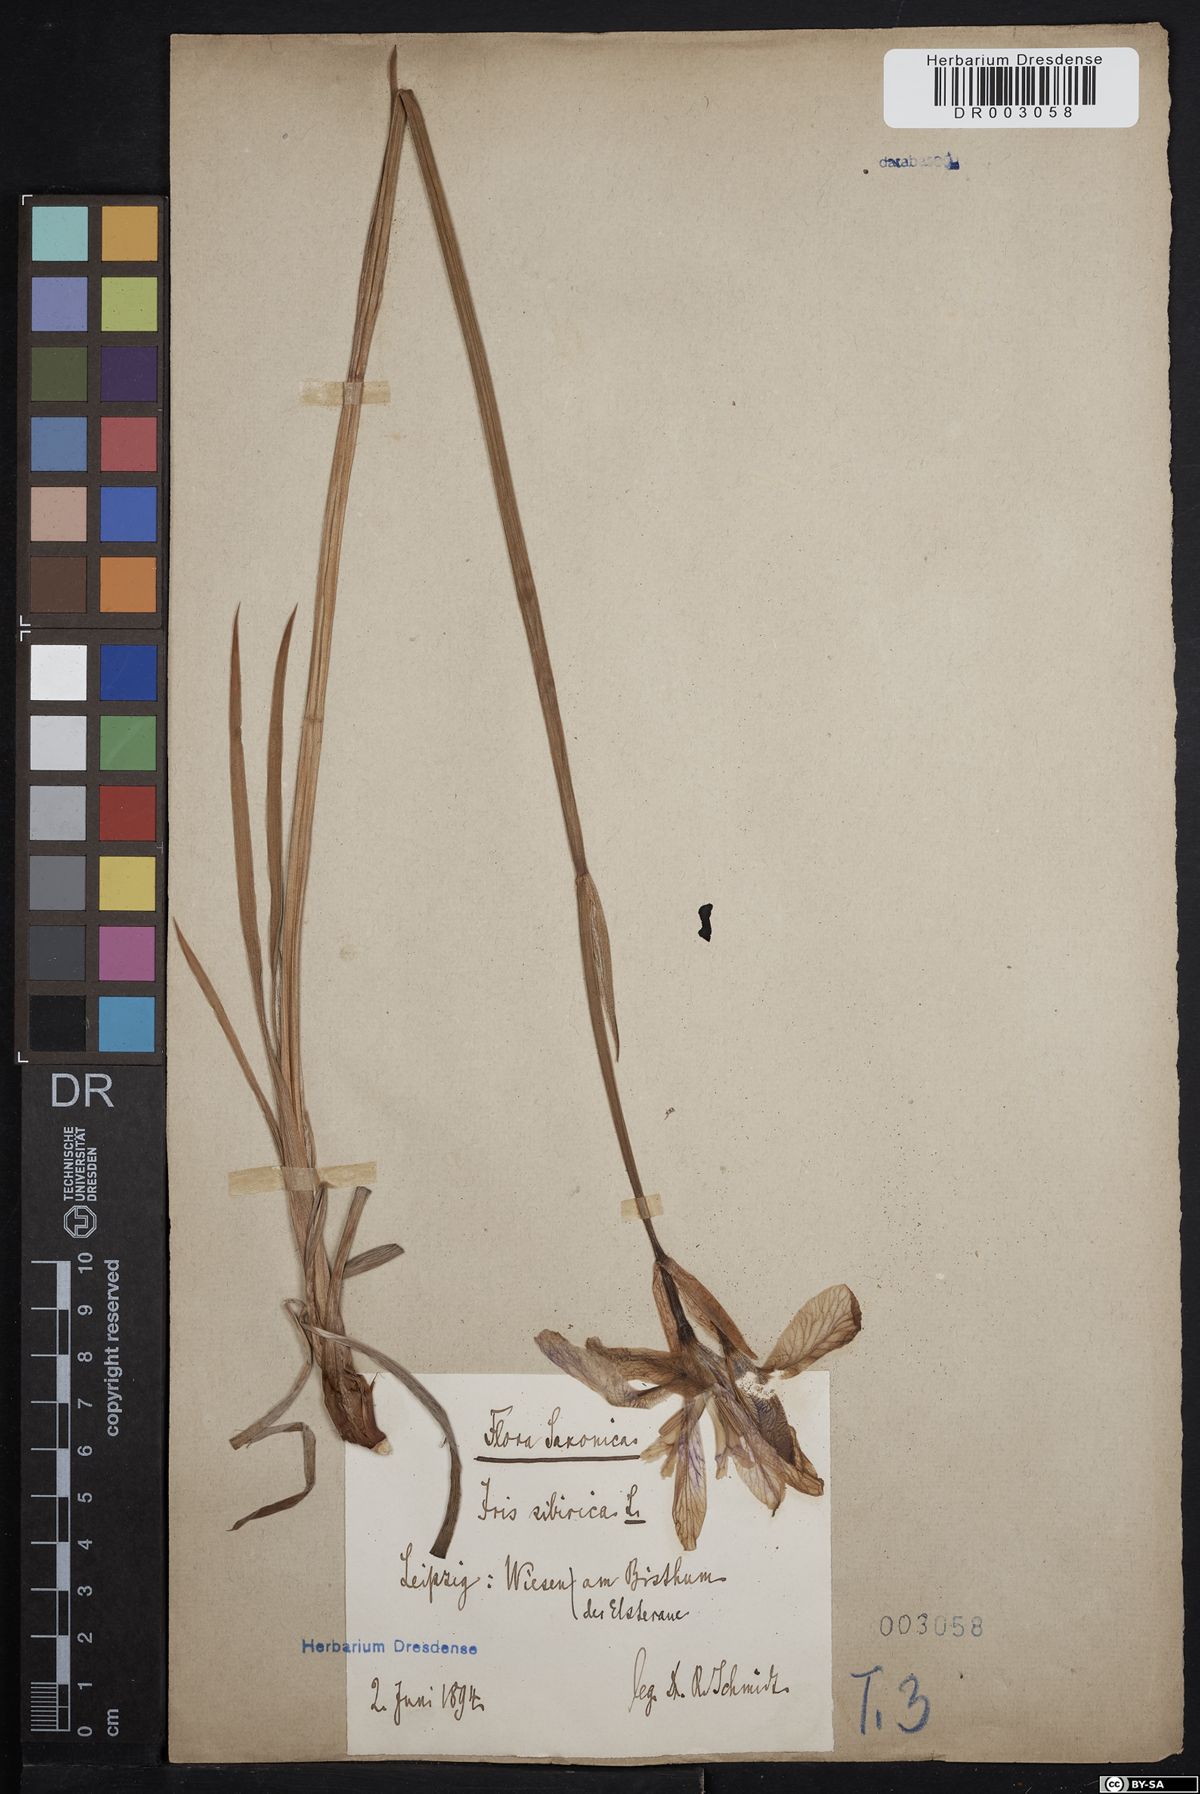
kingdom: Plantae
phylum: Tracheophyta
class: Liliopsida
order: Asparagales
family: Iridaceae
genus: Iris
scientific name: Iris sibirica
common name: Siberian iris
